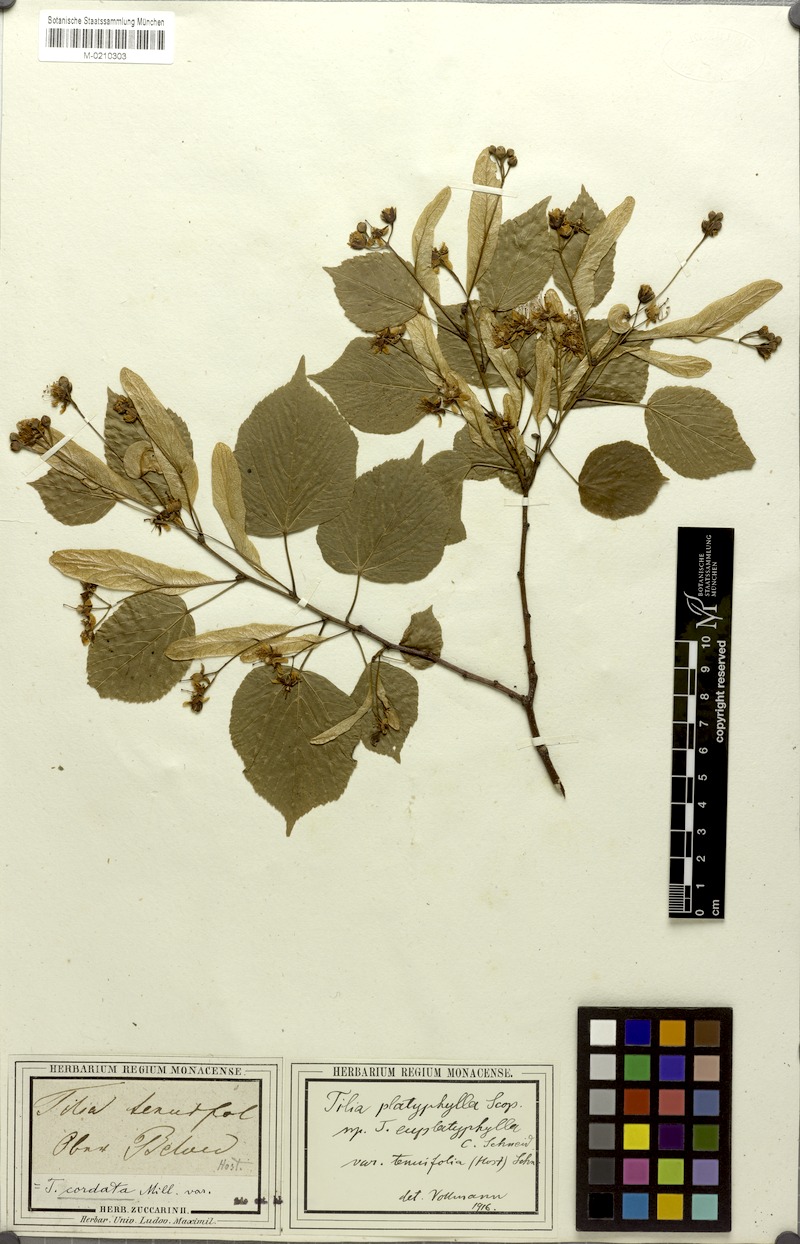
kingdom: Plantae
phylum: Tracheophyta
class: Magnoliopsida
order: Malvales
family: Malvaceae
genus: Tilia
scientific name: Tilia platyphyllos
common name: Large-leaved lime
